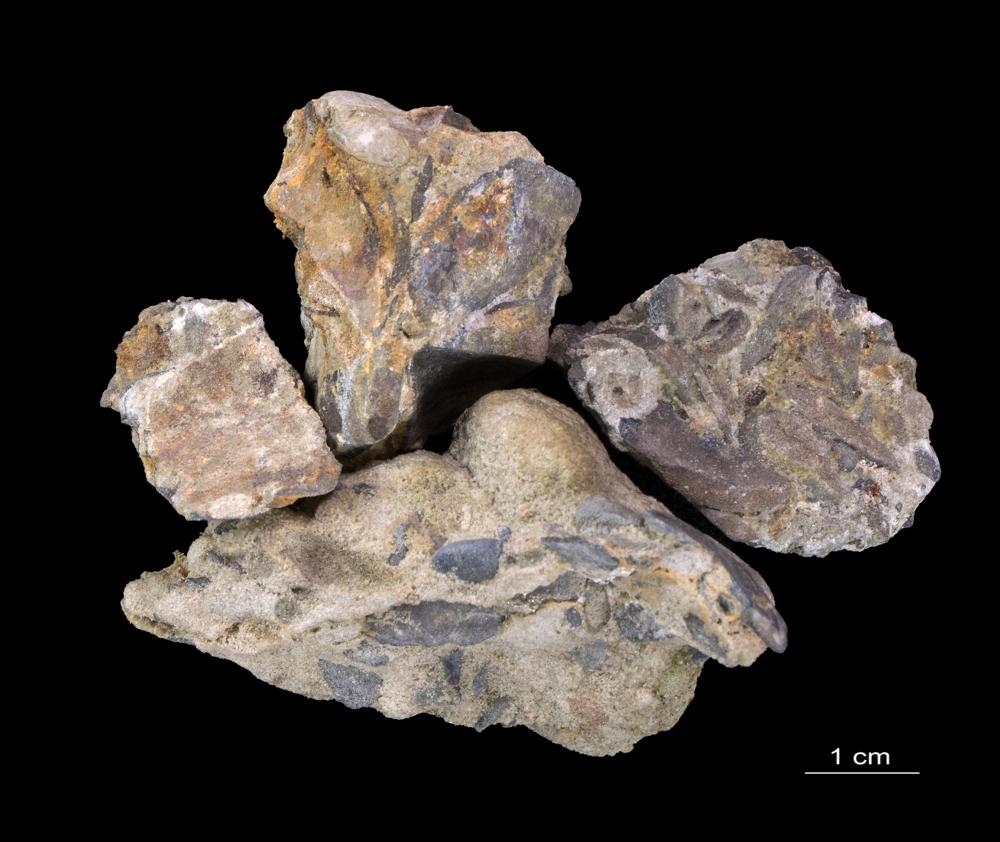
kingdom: Animalia
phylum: Brachiopoda
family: Paterinidae
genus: Mickwitzia
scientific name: Mickwitzia
